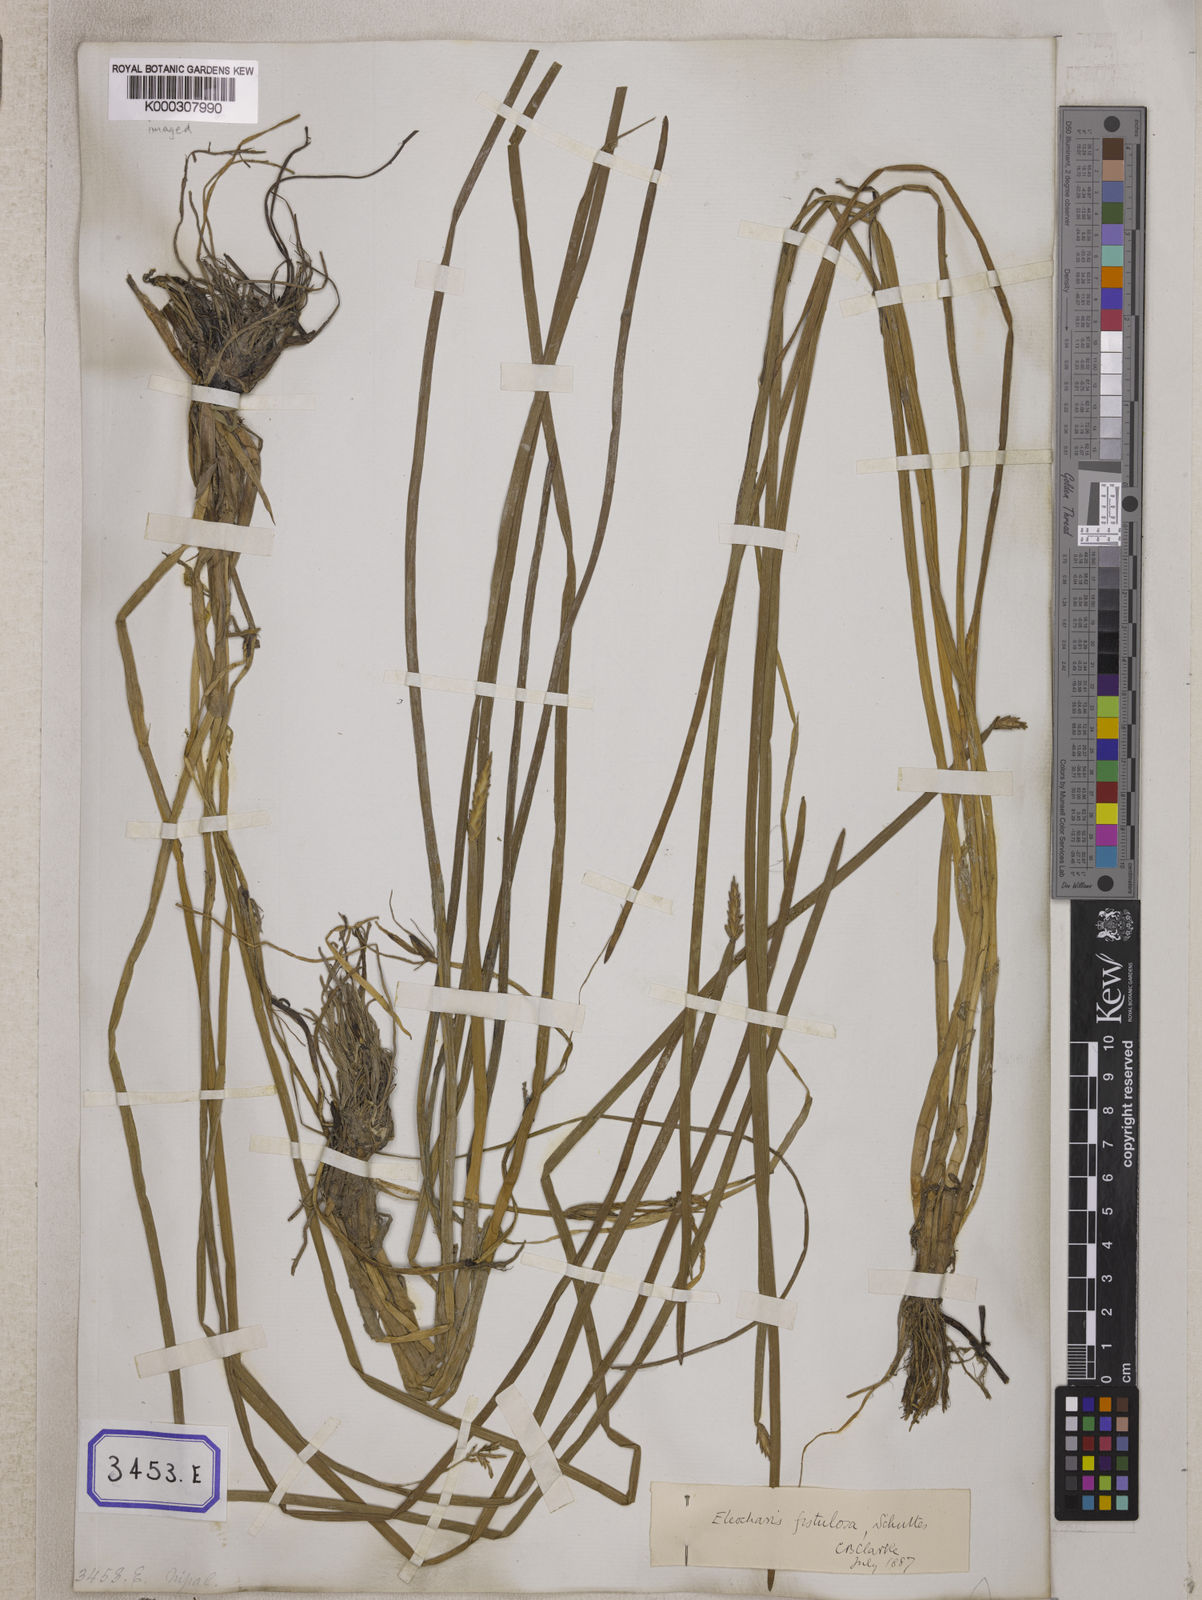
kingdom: Plantae
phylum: Tracheophyta
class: Liliopsida
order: Poales
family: Cyperaceae
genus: Eleocharis
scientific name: Eleocharis acutangula
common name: Acute spikerush
